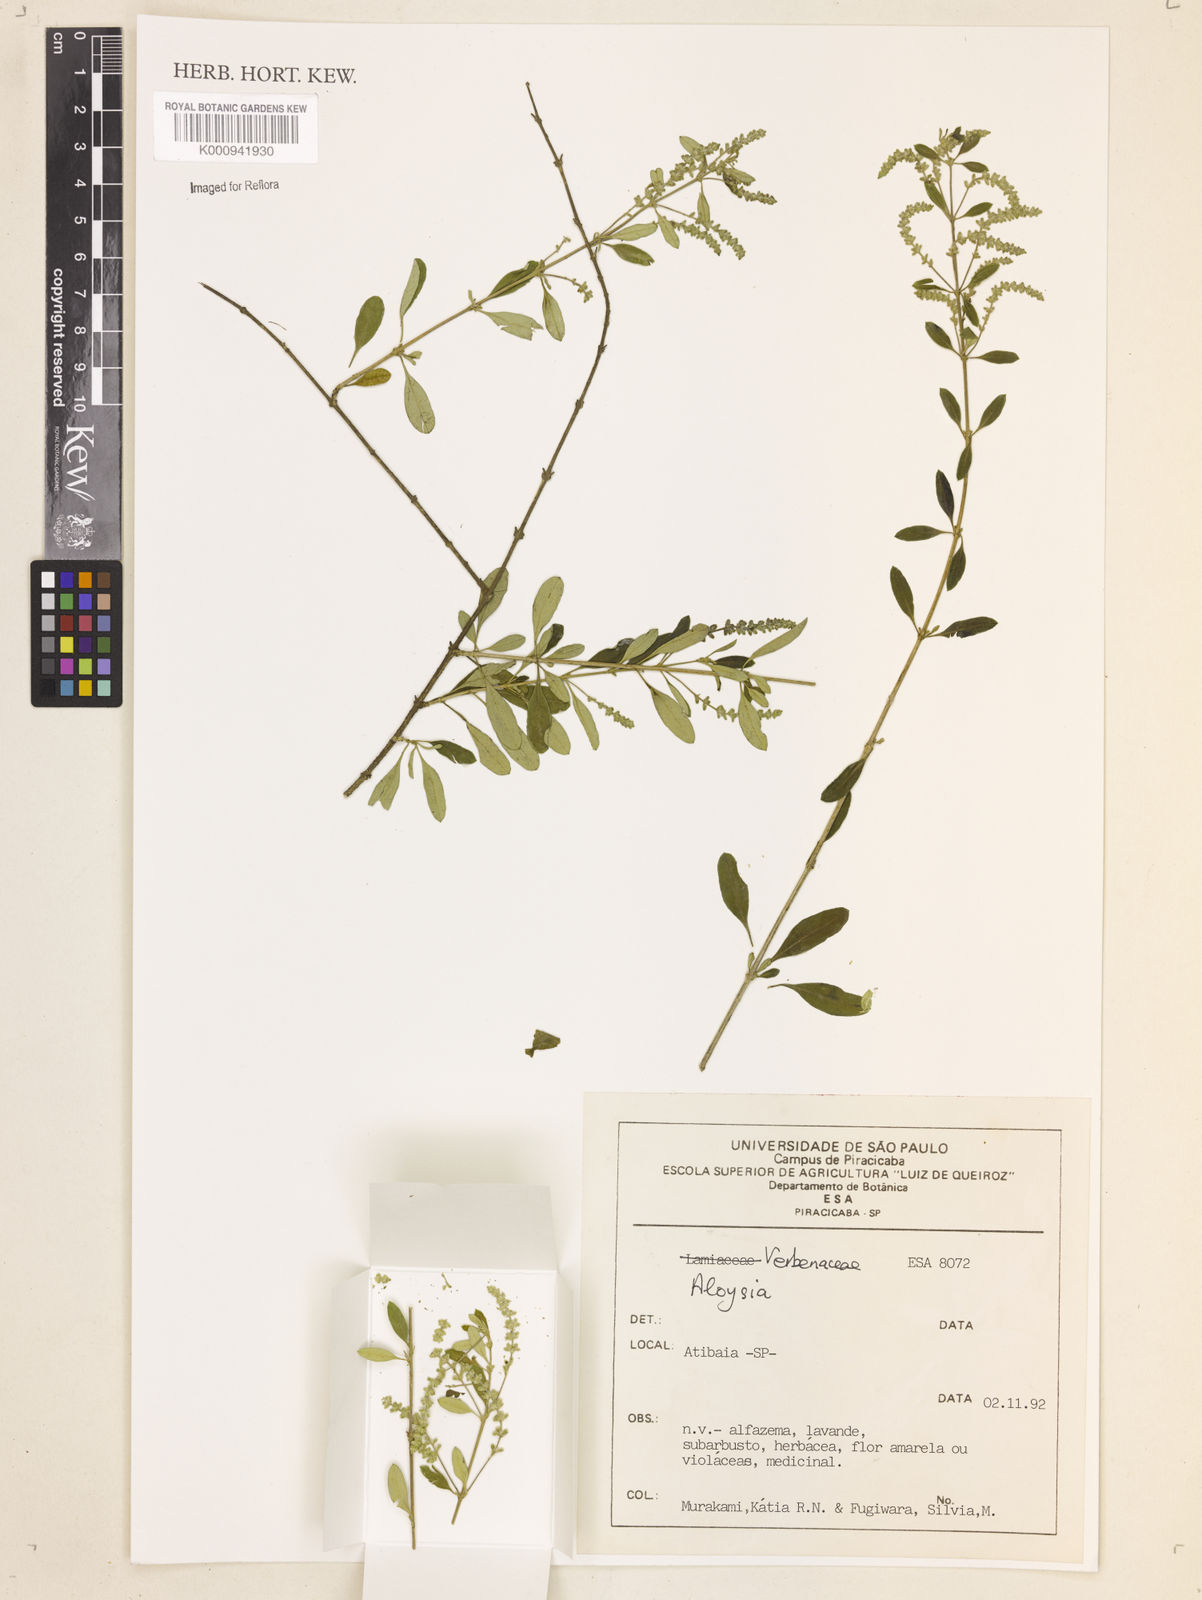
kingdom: Plantae
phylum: Tracheophyta
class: Magnoliopsida
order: Lamiales
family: Verbenaceae
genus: Aloysia
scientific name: Aloysia
